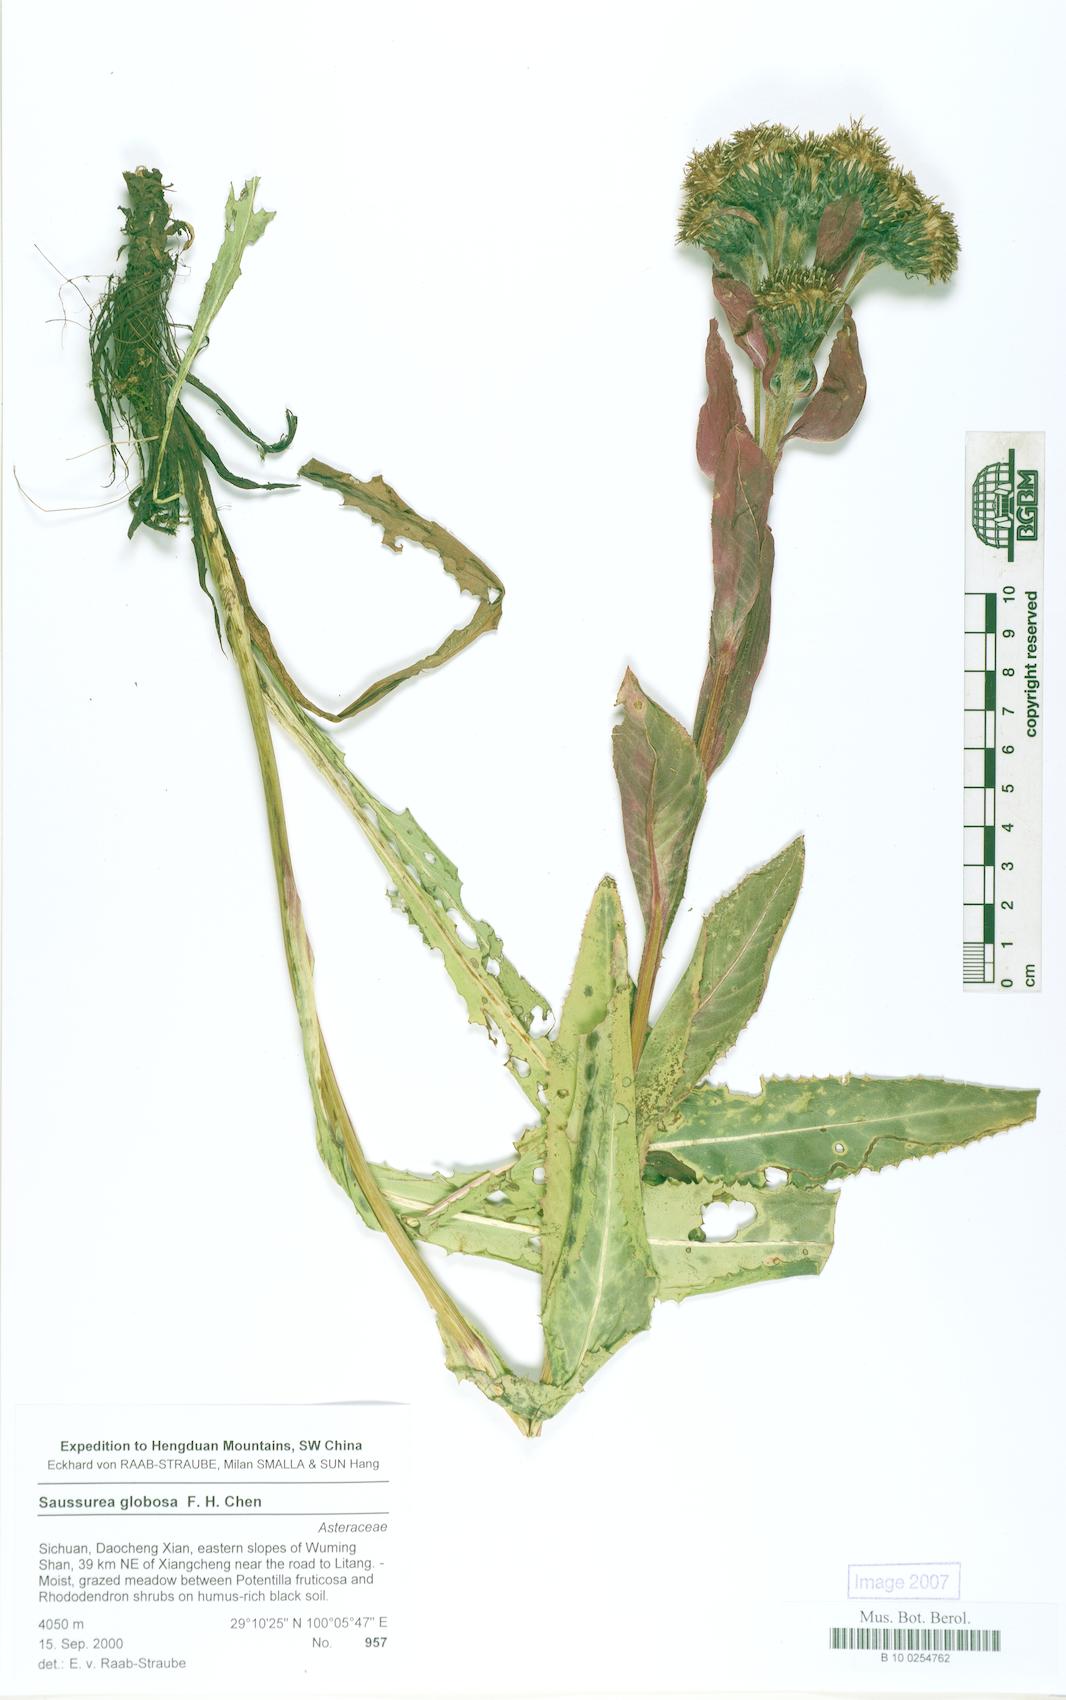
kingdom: Plantae
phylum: Tracheophyta
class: Magnoliopsida
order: Asterales
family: Asteraceae
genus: Saussurea
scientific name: Saussurea globosa
